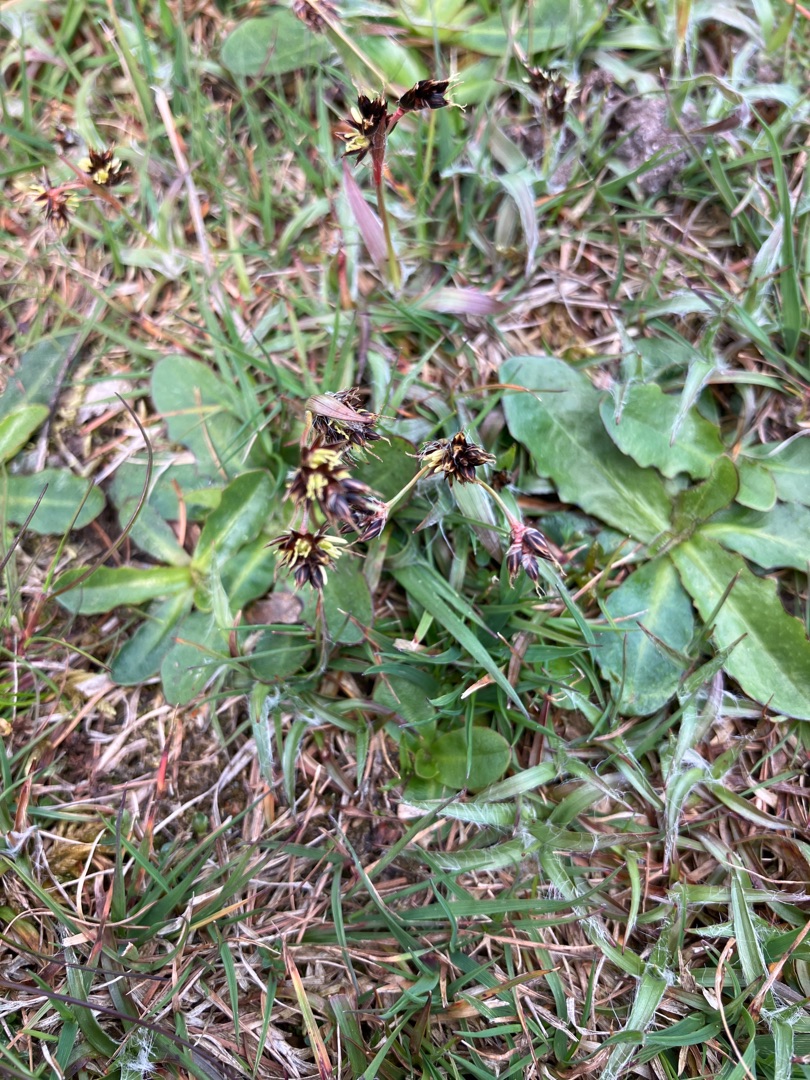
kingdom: Plantae
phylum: Tracheophyta
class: Liliopsida
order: Poales
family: Juncaceae
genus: Luzula
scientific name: Luzula campestris
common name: Mark-frytle
